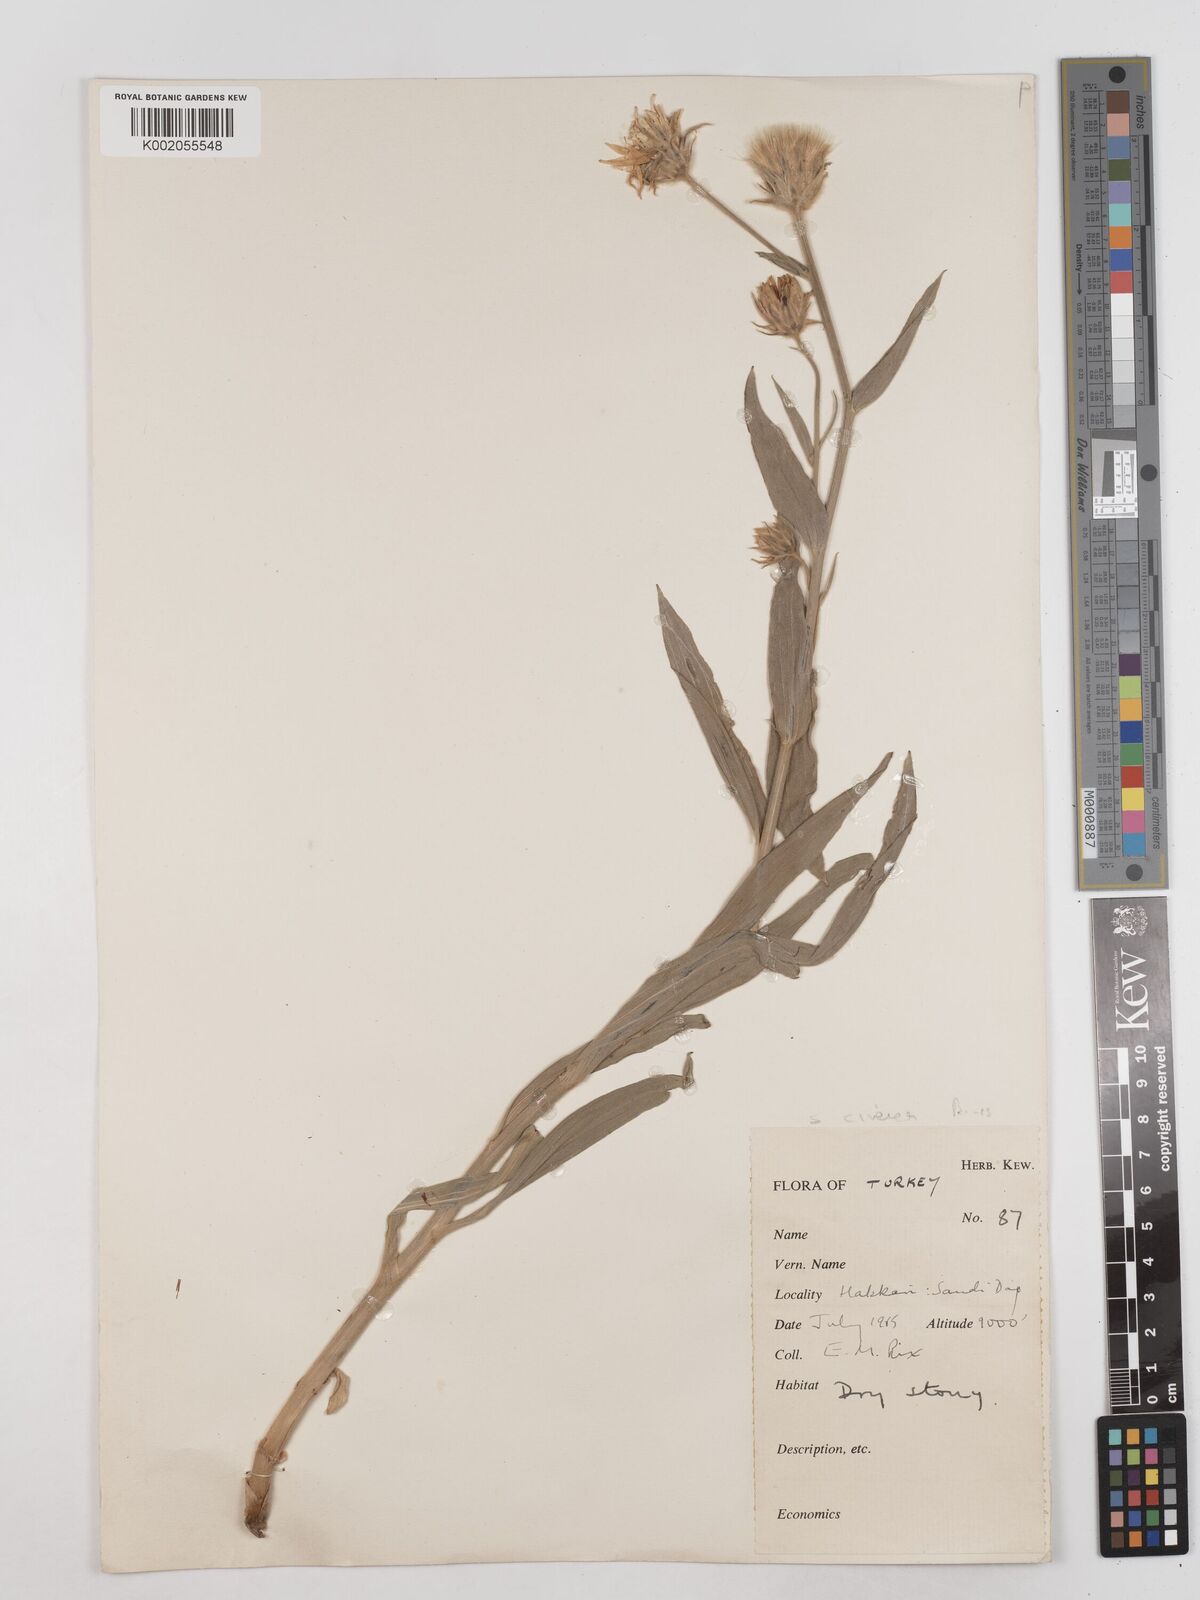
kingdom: Plantae
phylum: Tracheophyta
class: Magnoliopsida
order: Asterales
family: Asteraceae
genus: Cigdemia
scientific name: Cigdemia cinerea
